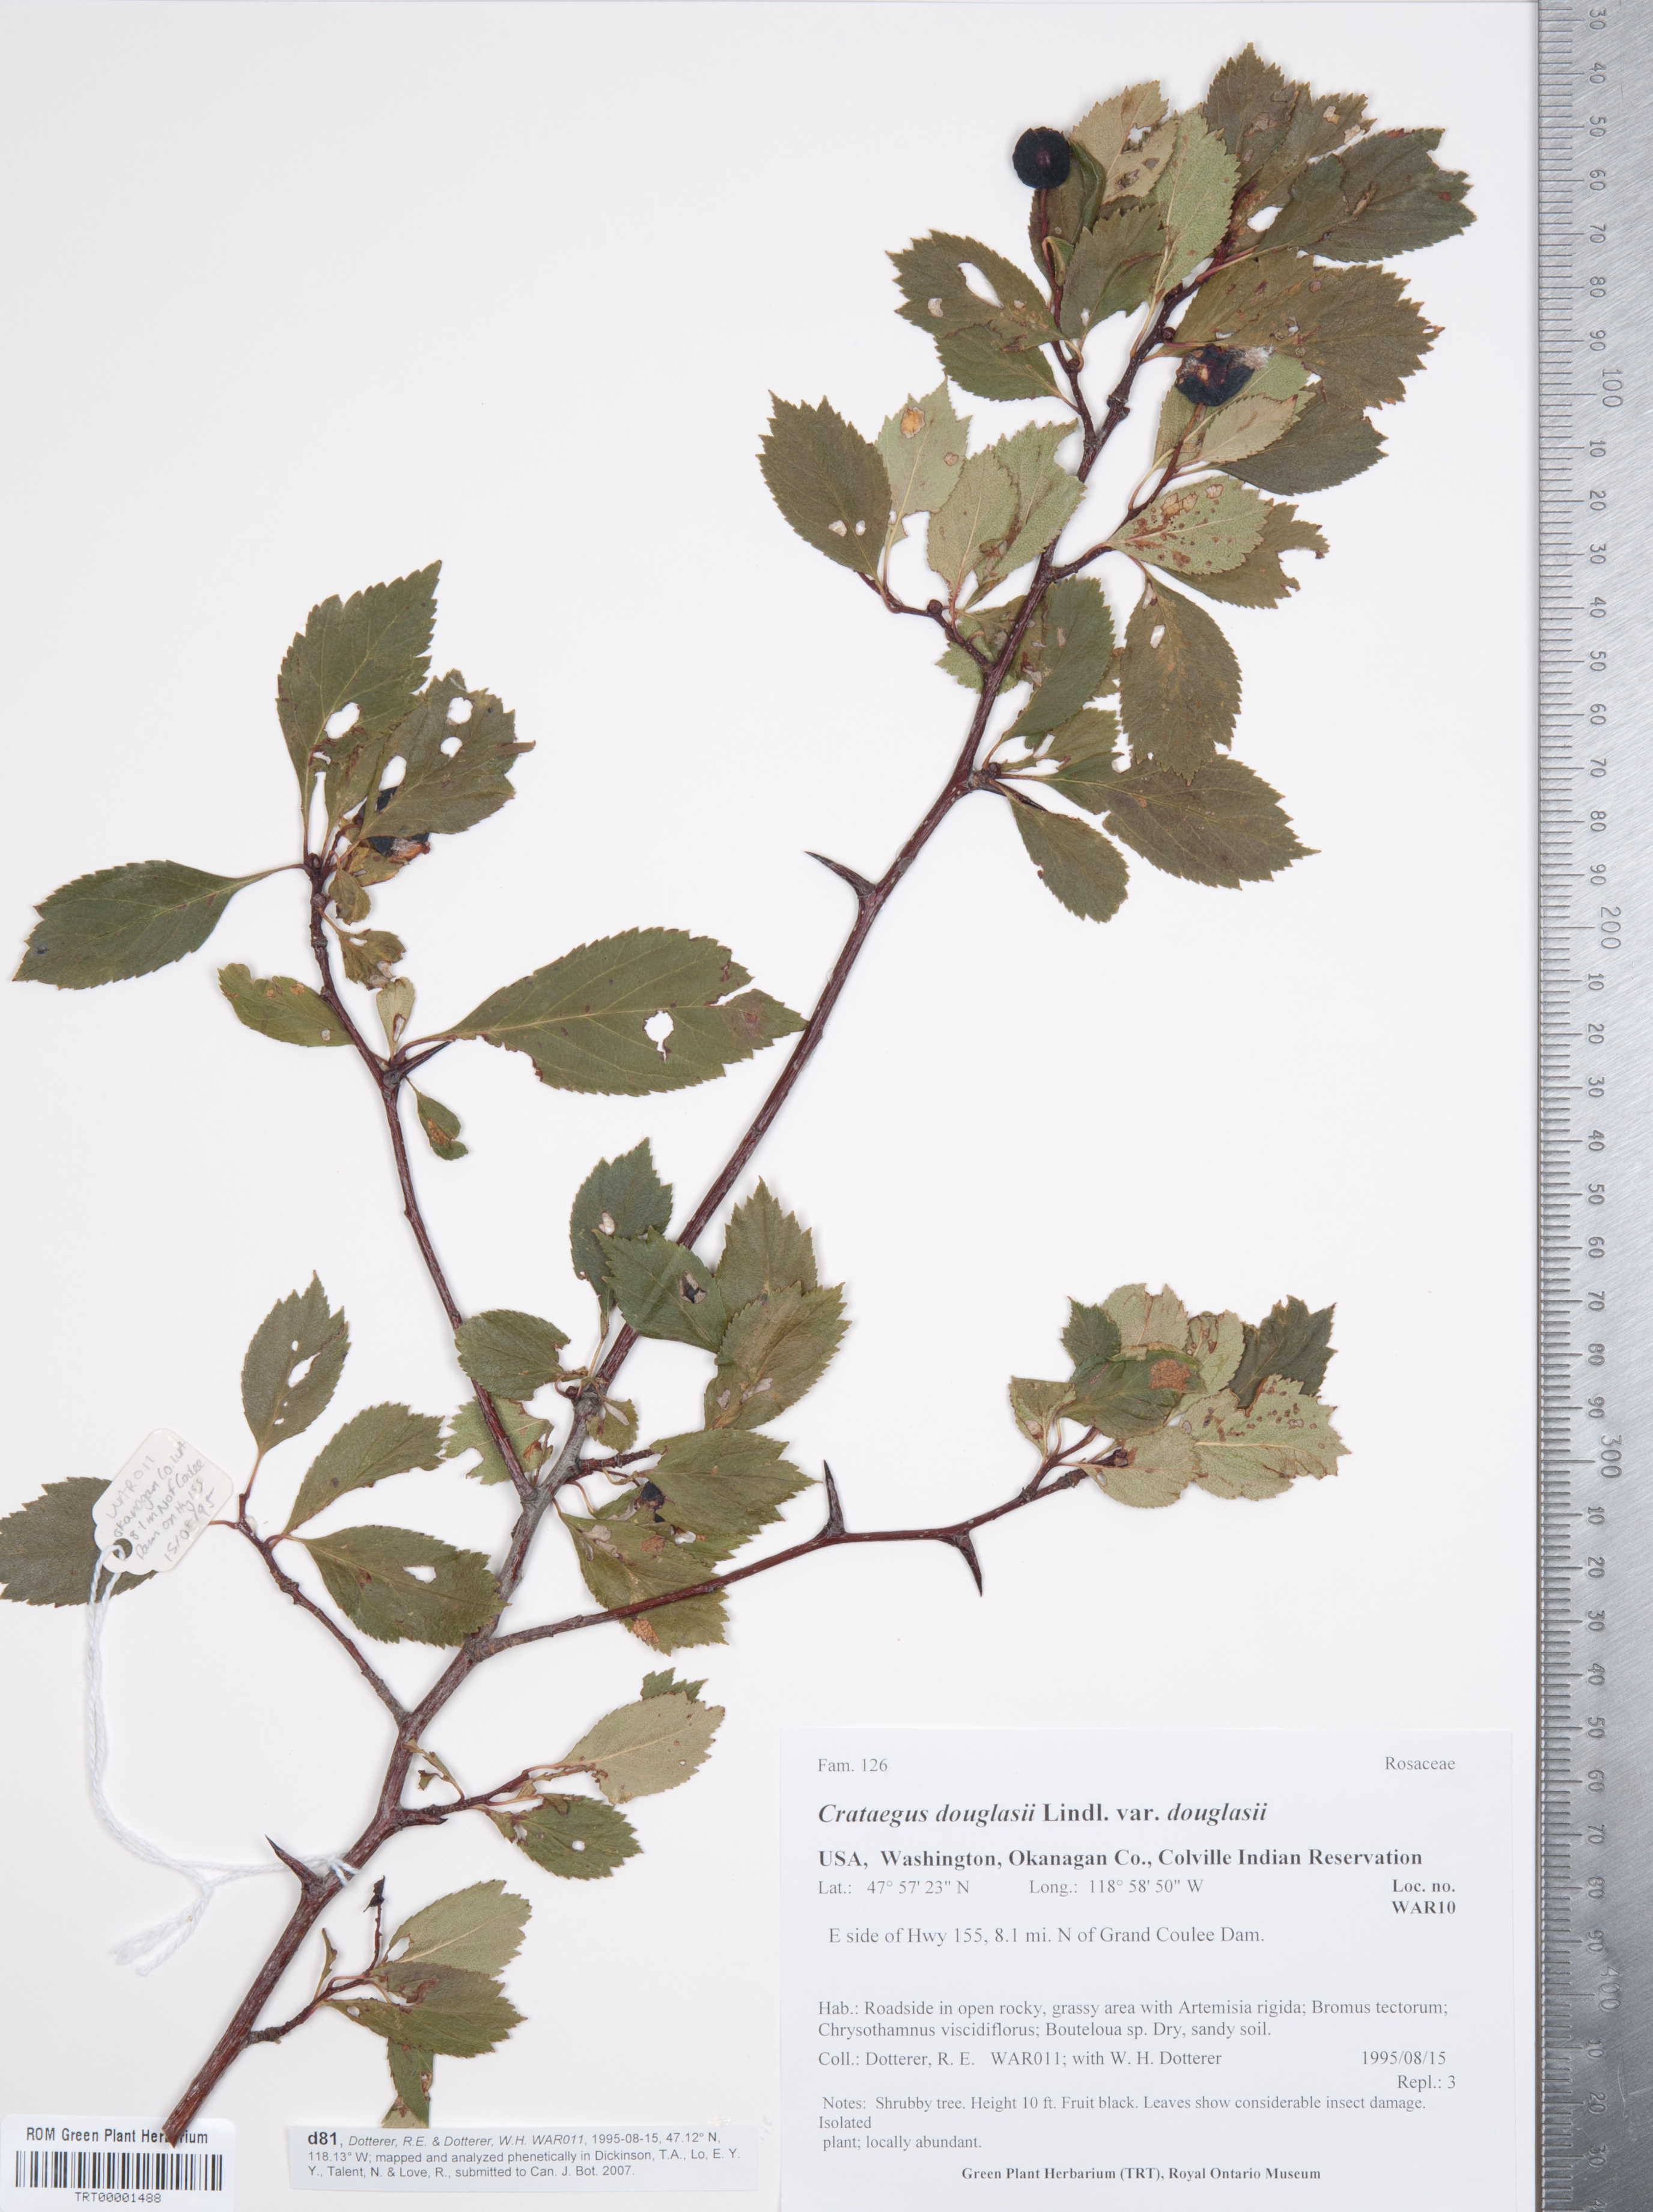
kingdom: Plantae
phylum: Tracheophyta
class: Magnoliopsida
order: Rosales
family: Rosaceae
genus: Crataegus
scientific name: Crataegus douglasii
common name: Black hawthorn
